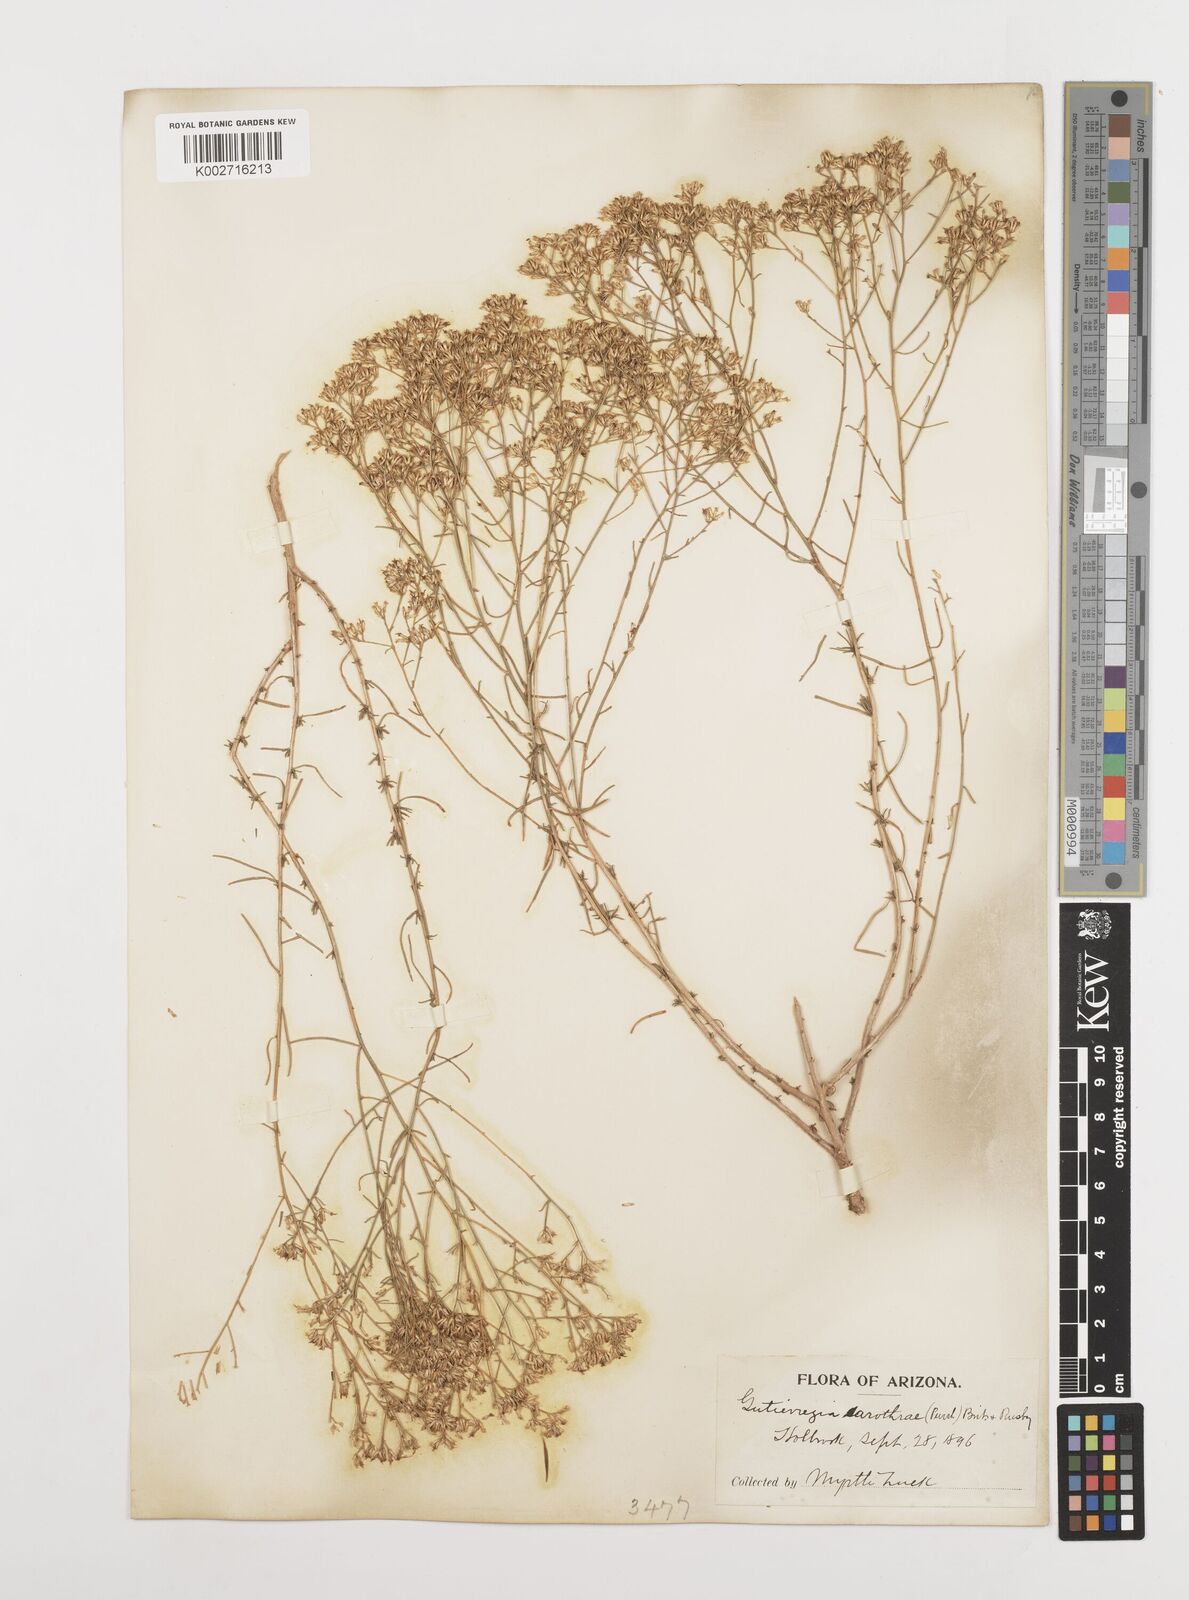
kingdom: Plantae
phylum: Tracheophyta
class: Magnoliopsida
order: Asterales
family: Asteraceae
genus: Gutierrezia
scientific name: Gutierrezia sarothrae
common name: Broom snakeweed
